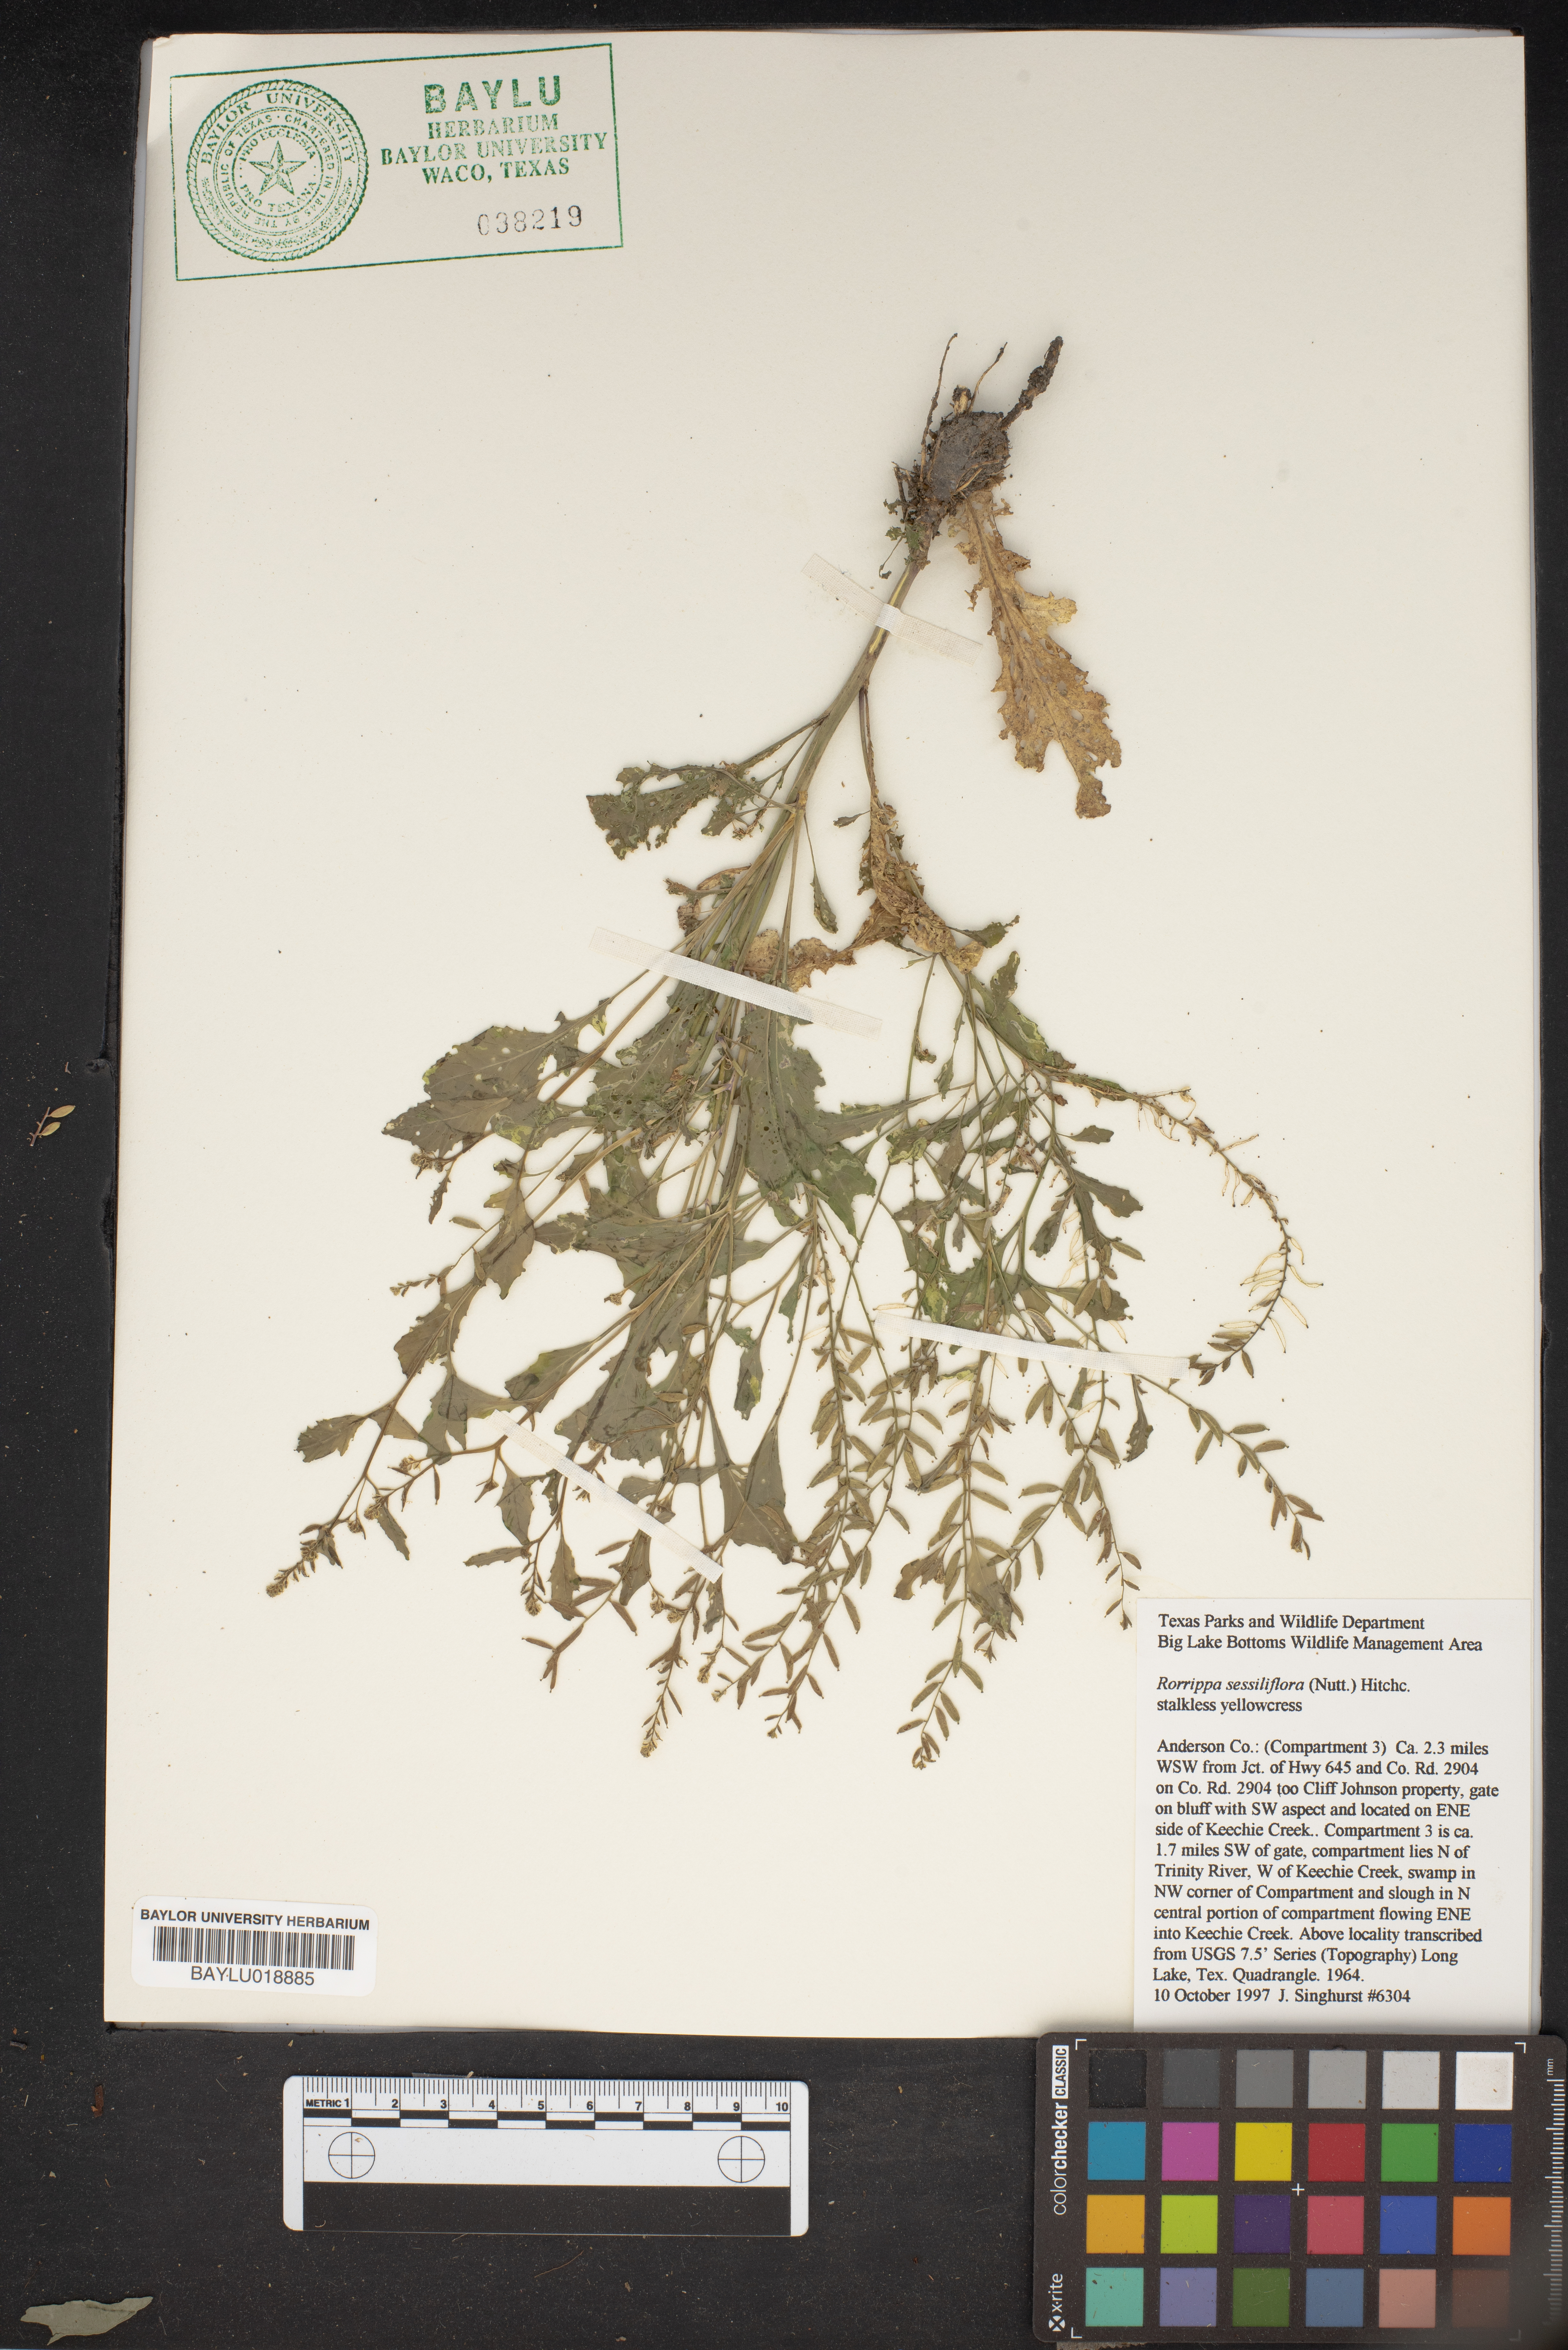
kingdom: Plantae
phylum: Tracheophyta
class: Magnoliopsida
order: Brassicales
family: Brassicaceae
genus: Rorippa
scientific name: Rorippa sessiliflora
